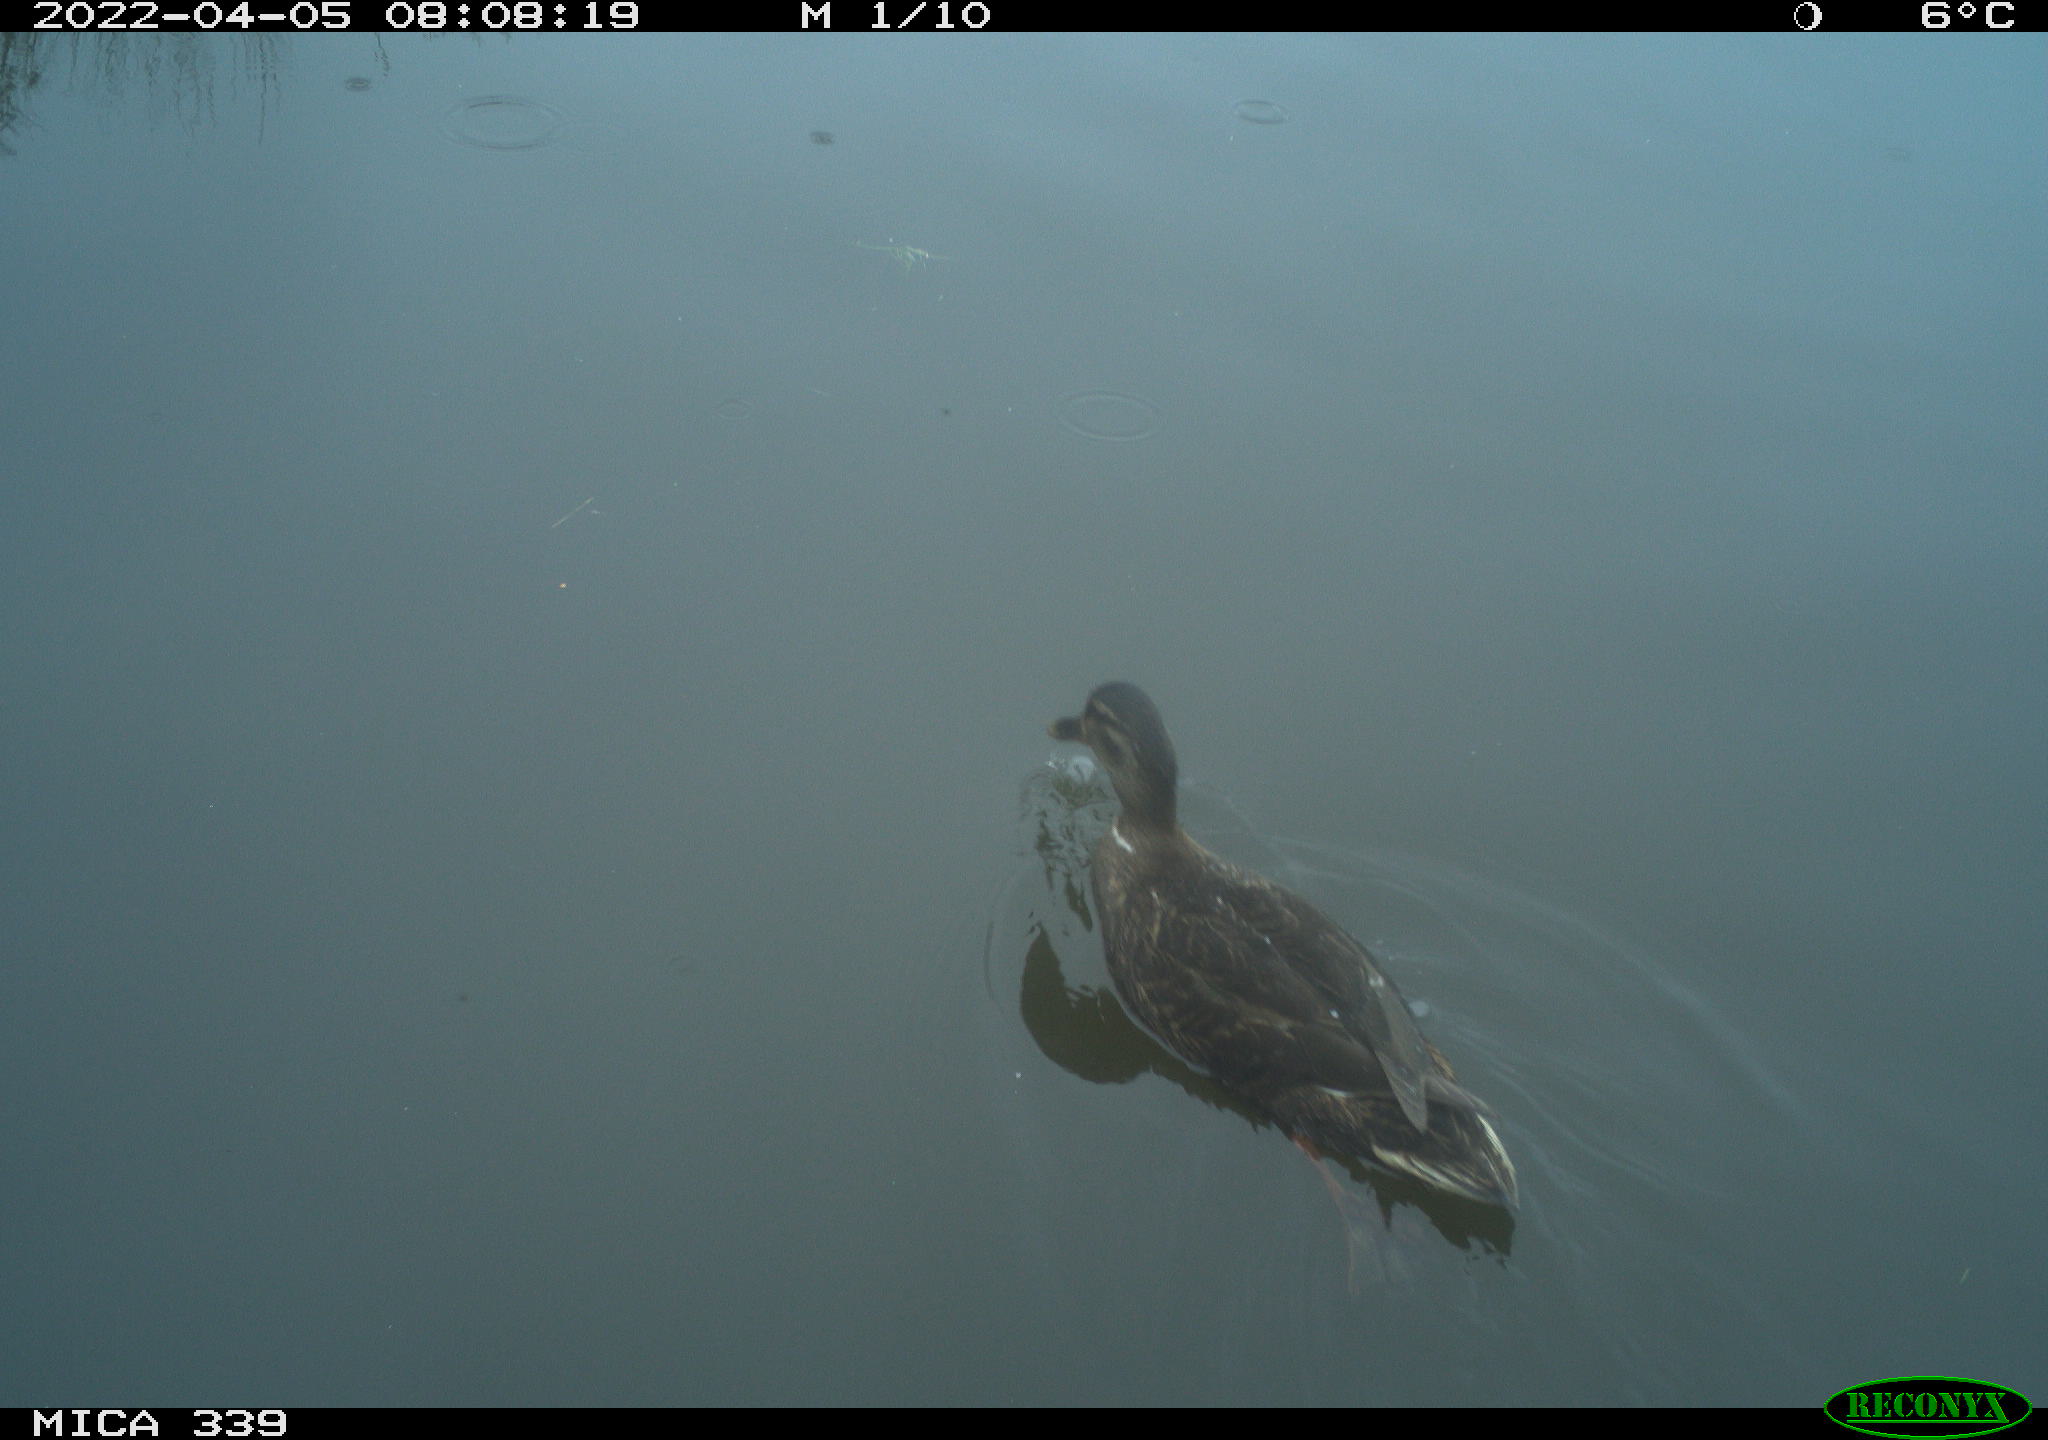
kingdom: Animalia
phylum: Chordata
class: Aves
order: Anseriformes
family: Anatidae
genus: Anas
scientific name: Anas platyrhynchos
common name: Mallard
